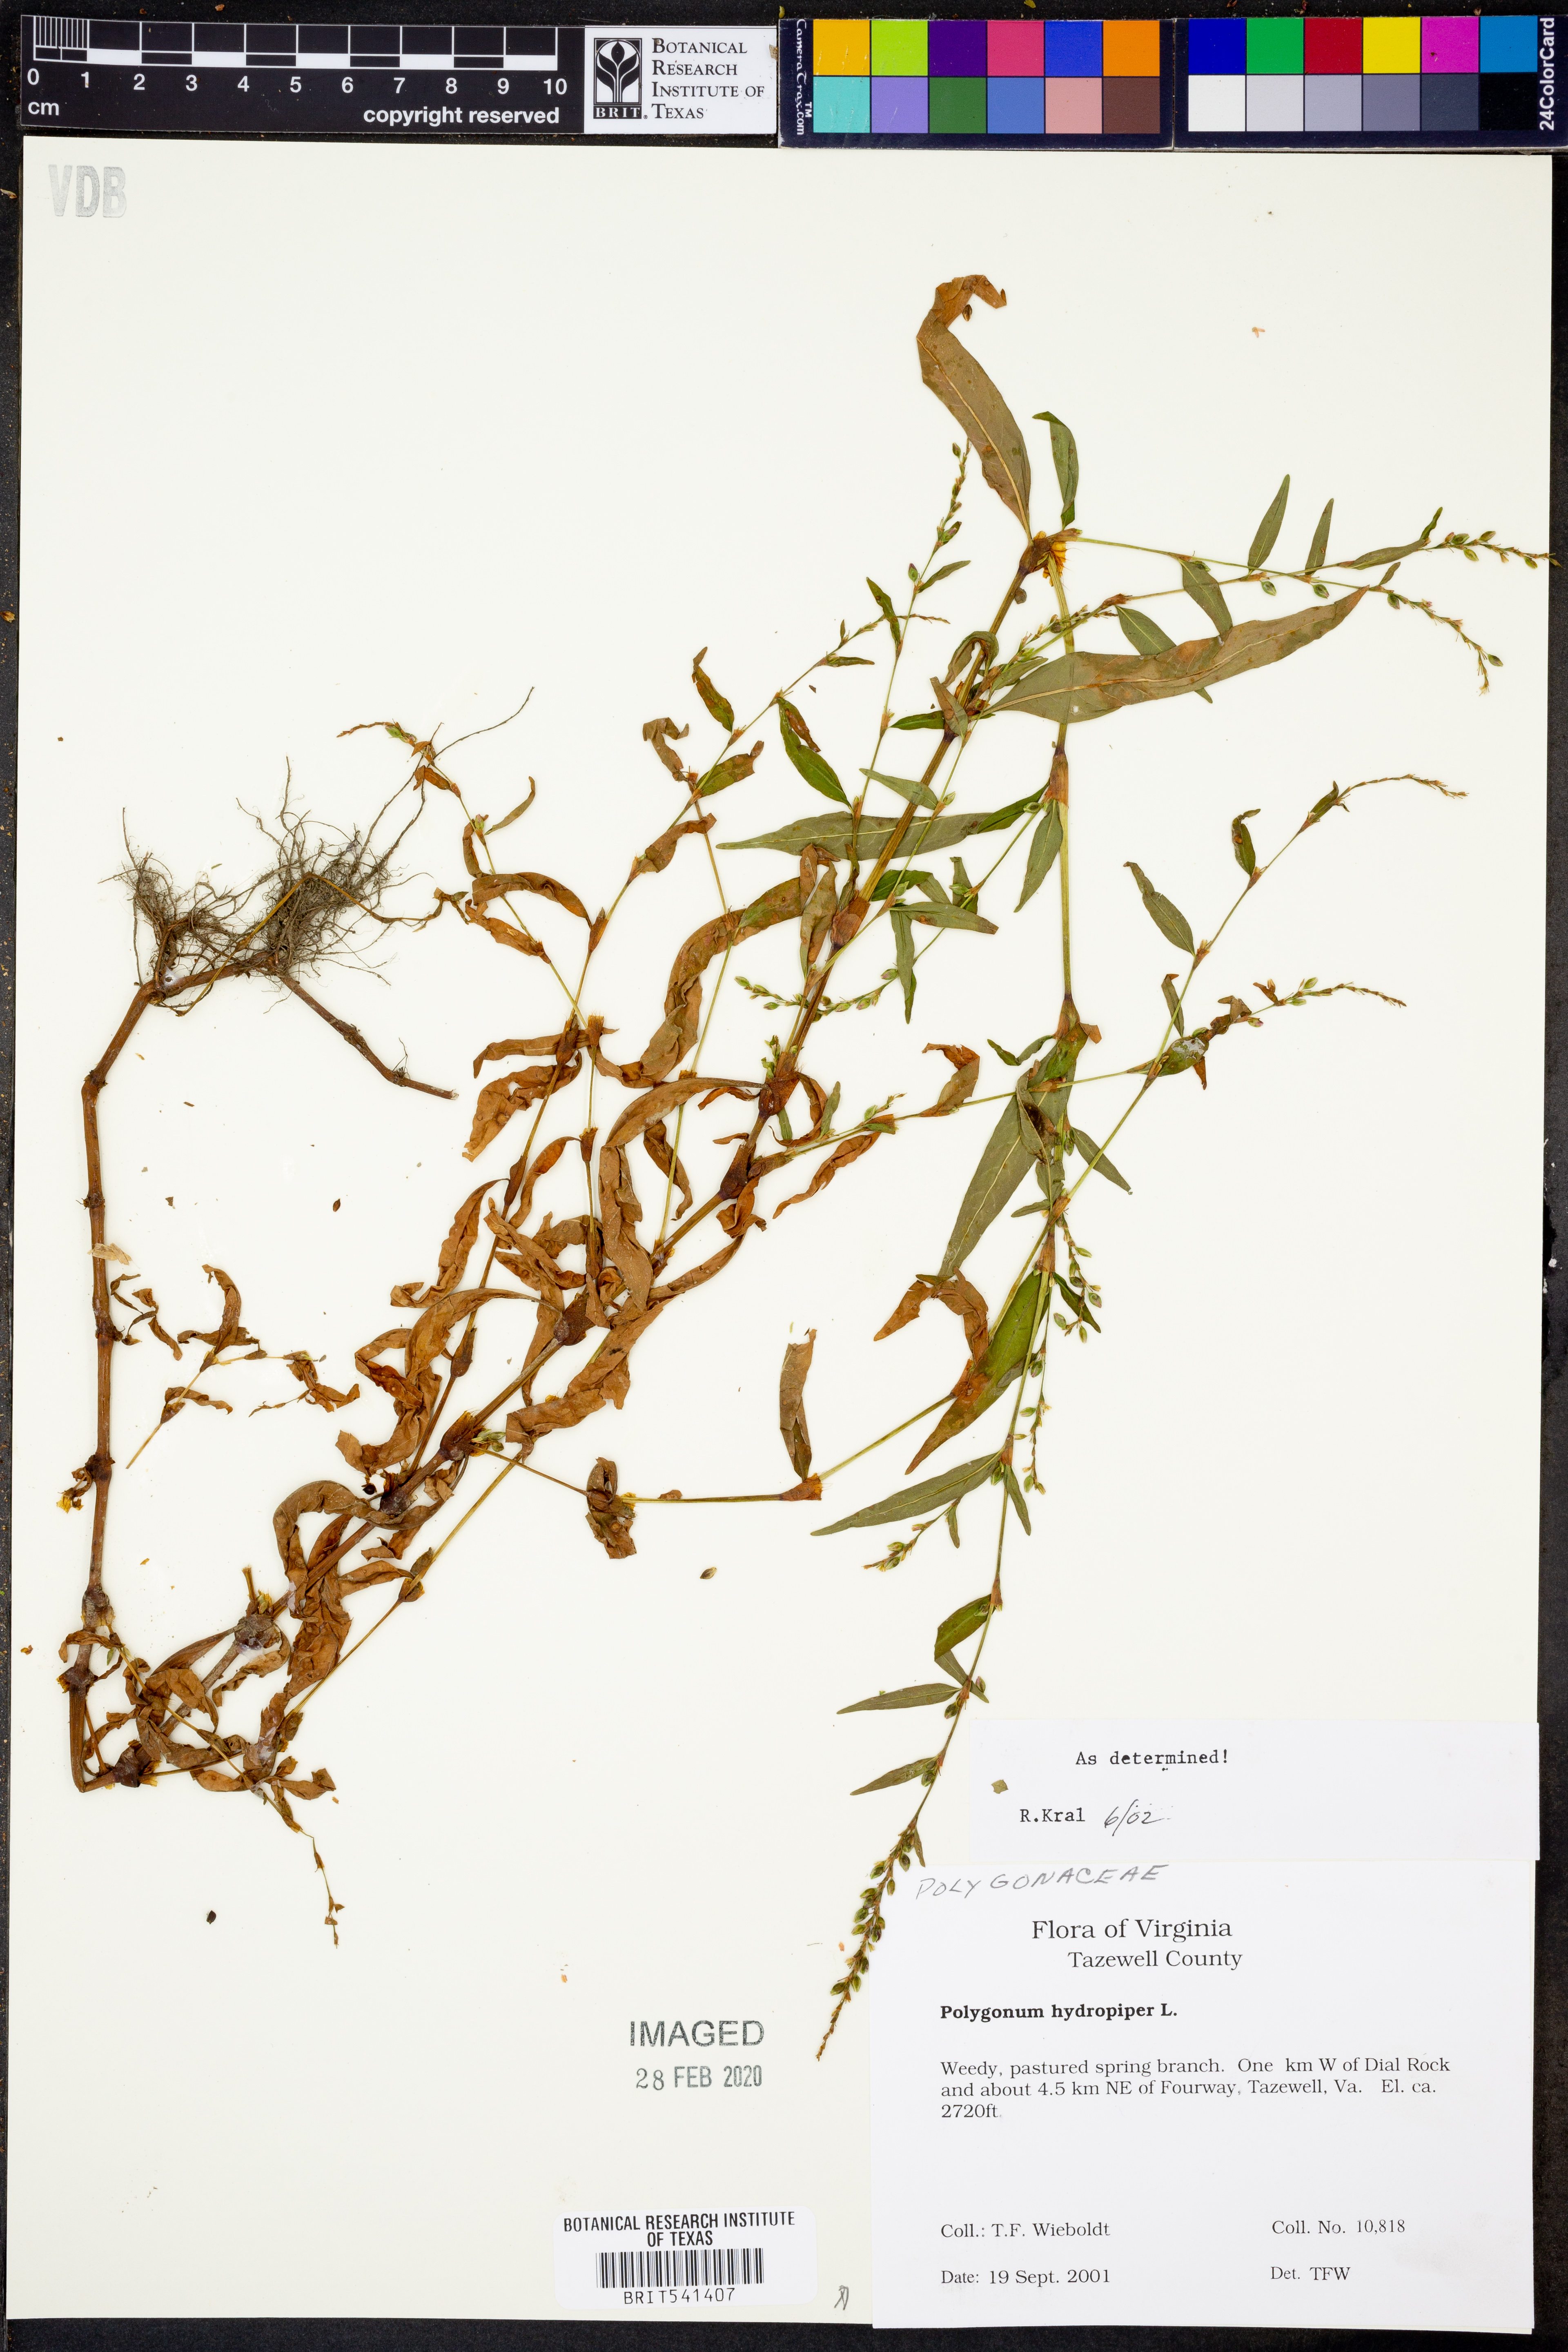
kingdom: Plantae
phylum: Tracheophyta
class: Magnoliopsida
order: Caryophyllales
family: Polygonaceae
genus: Persicaria
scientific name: Persicaria hydropiper
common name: Water-pepper
